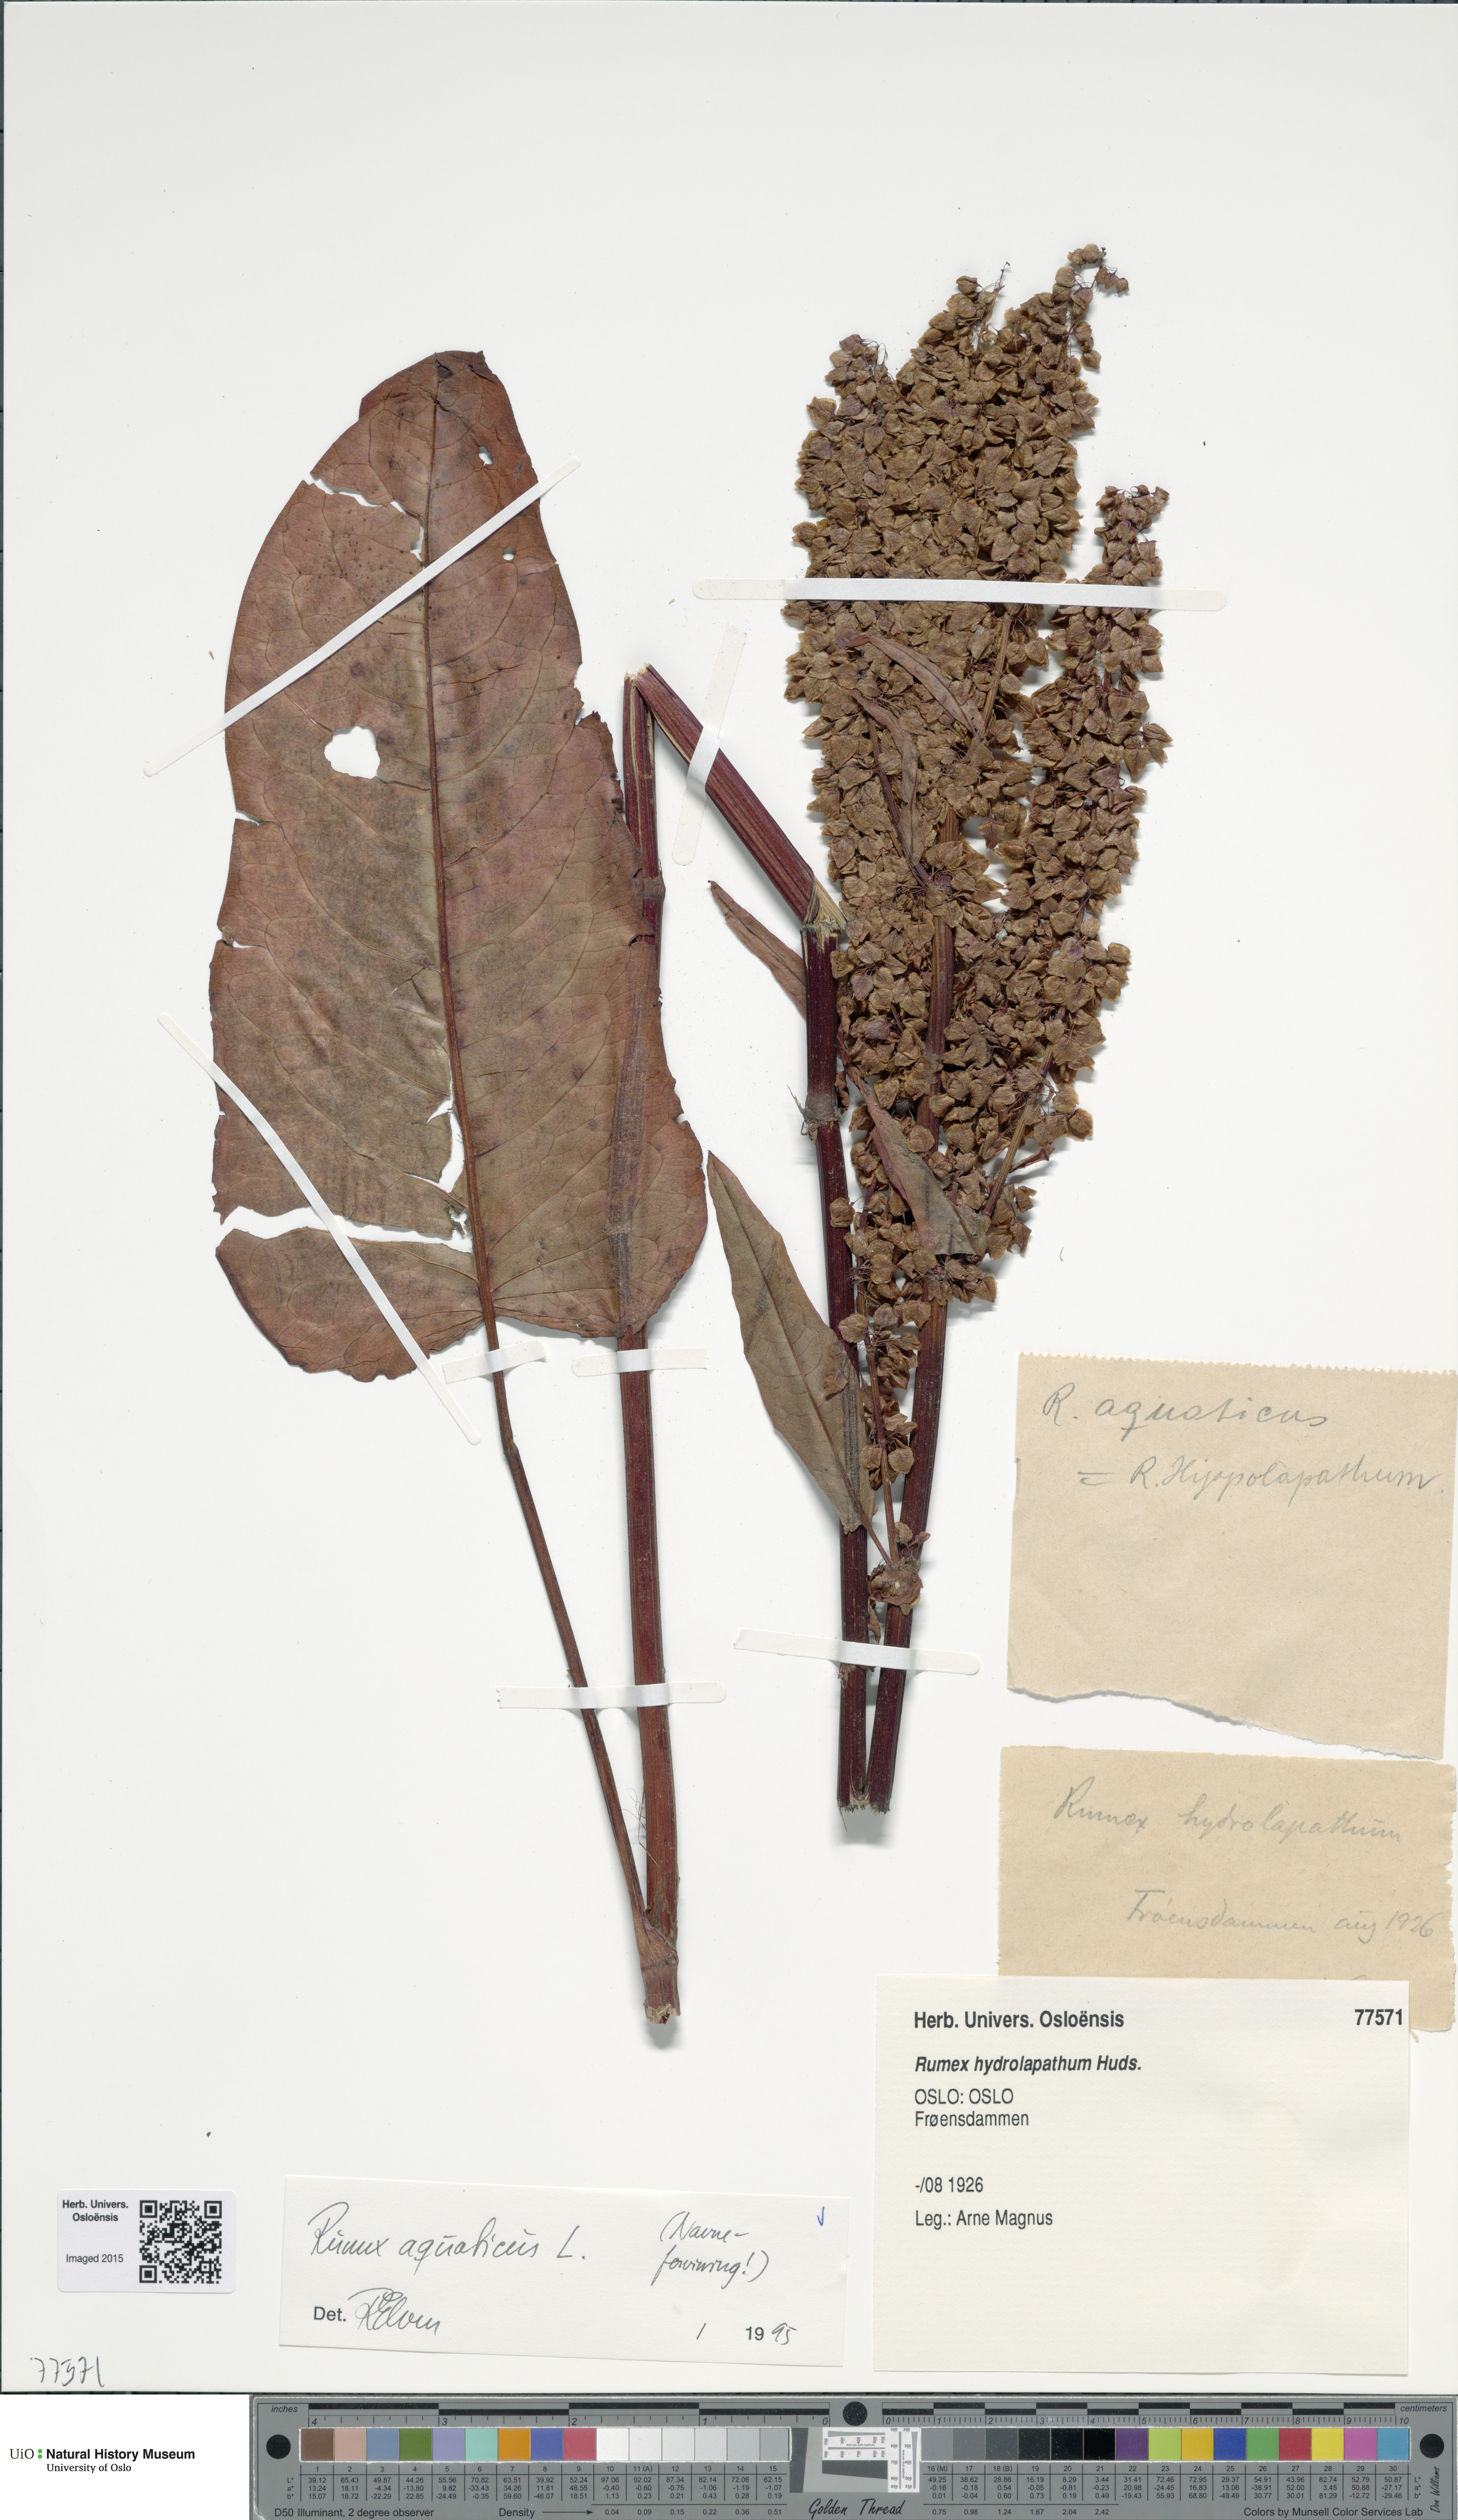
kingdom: Plantae
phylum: Tracheophyta
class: Magnoliopsida
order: Caryophyllales
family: Polygonaceae
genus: Rumex
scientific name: Rumex aquaticus
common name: Scottish dock
